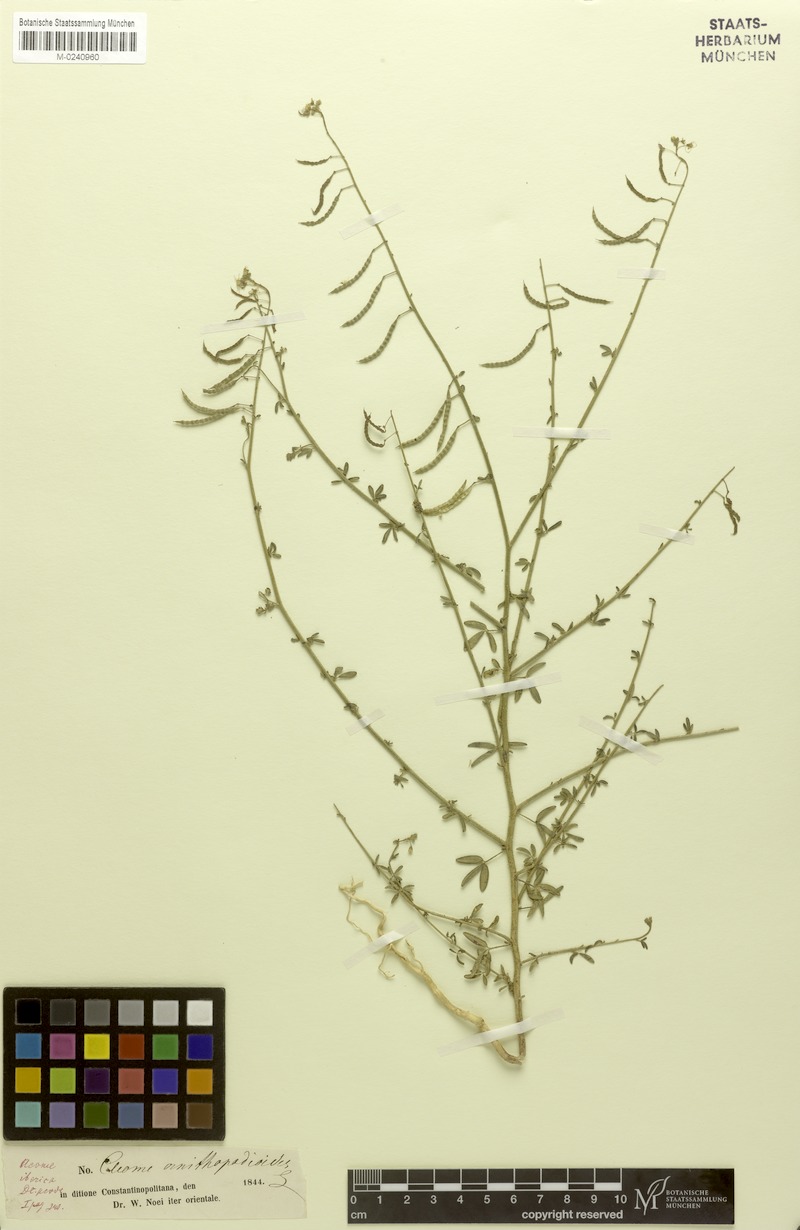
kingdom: Plantae
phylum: Tracheophyta
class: Magnoliopsida
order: Brassicales
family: Cleomaceae
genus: Cleome
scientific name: Cleome ornithopodioides
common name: Bird spiderflower
